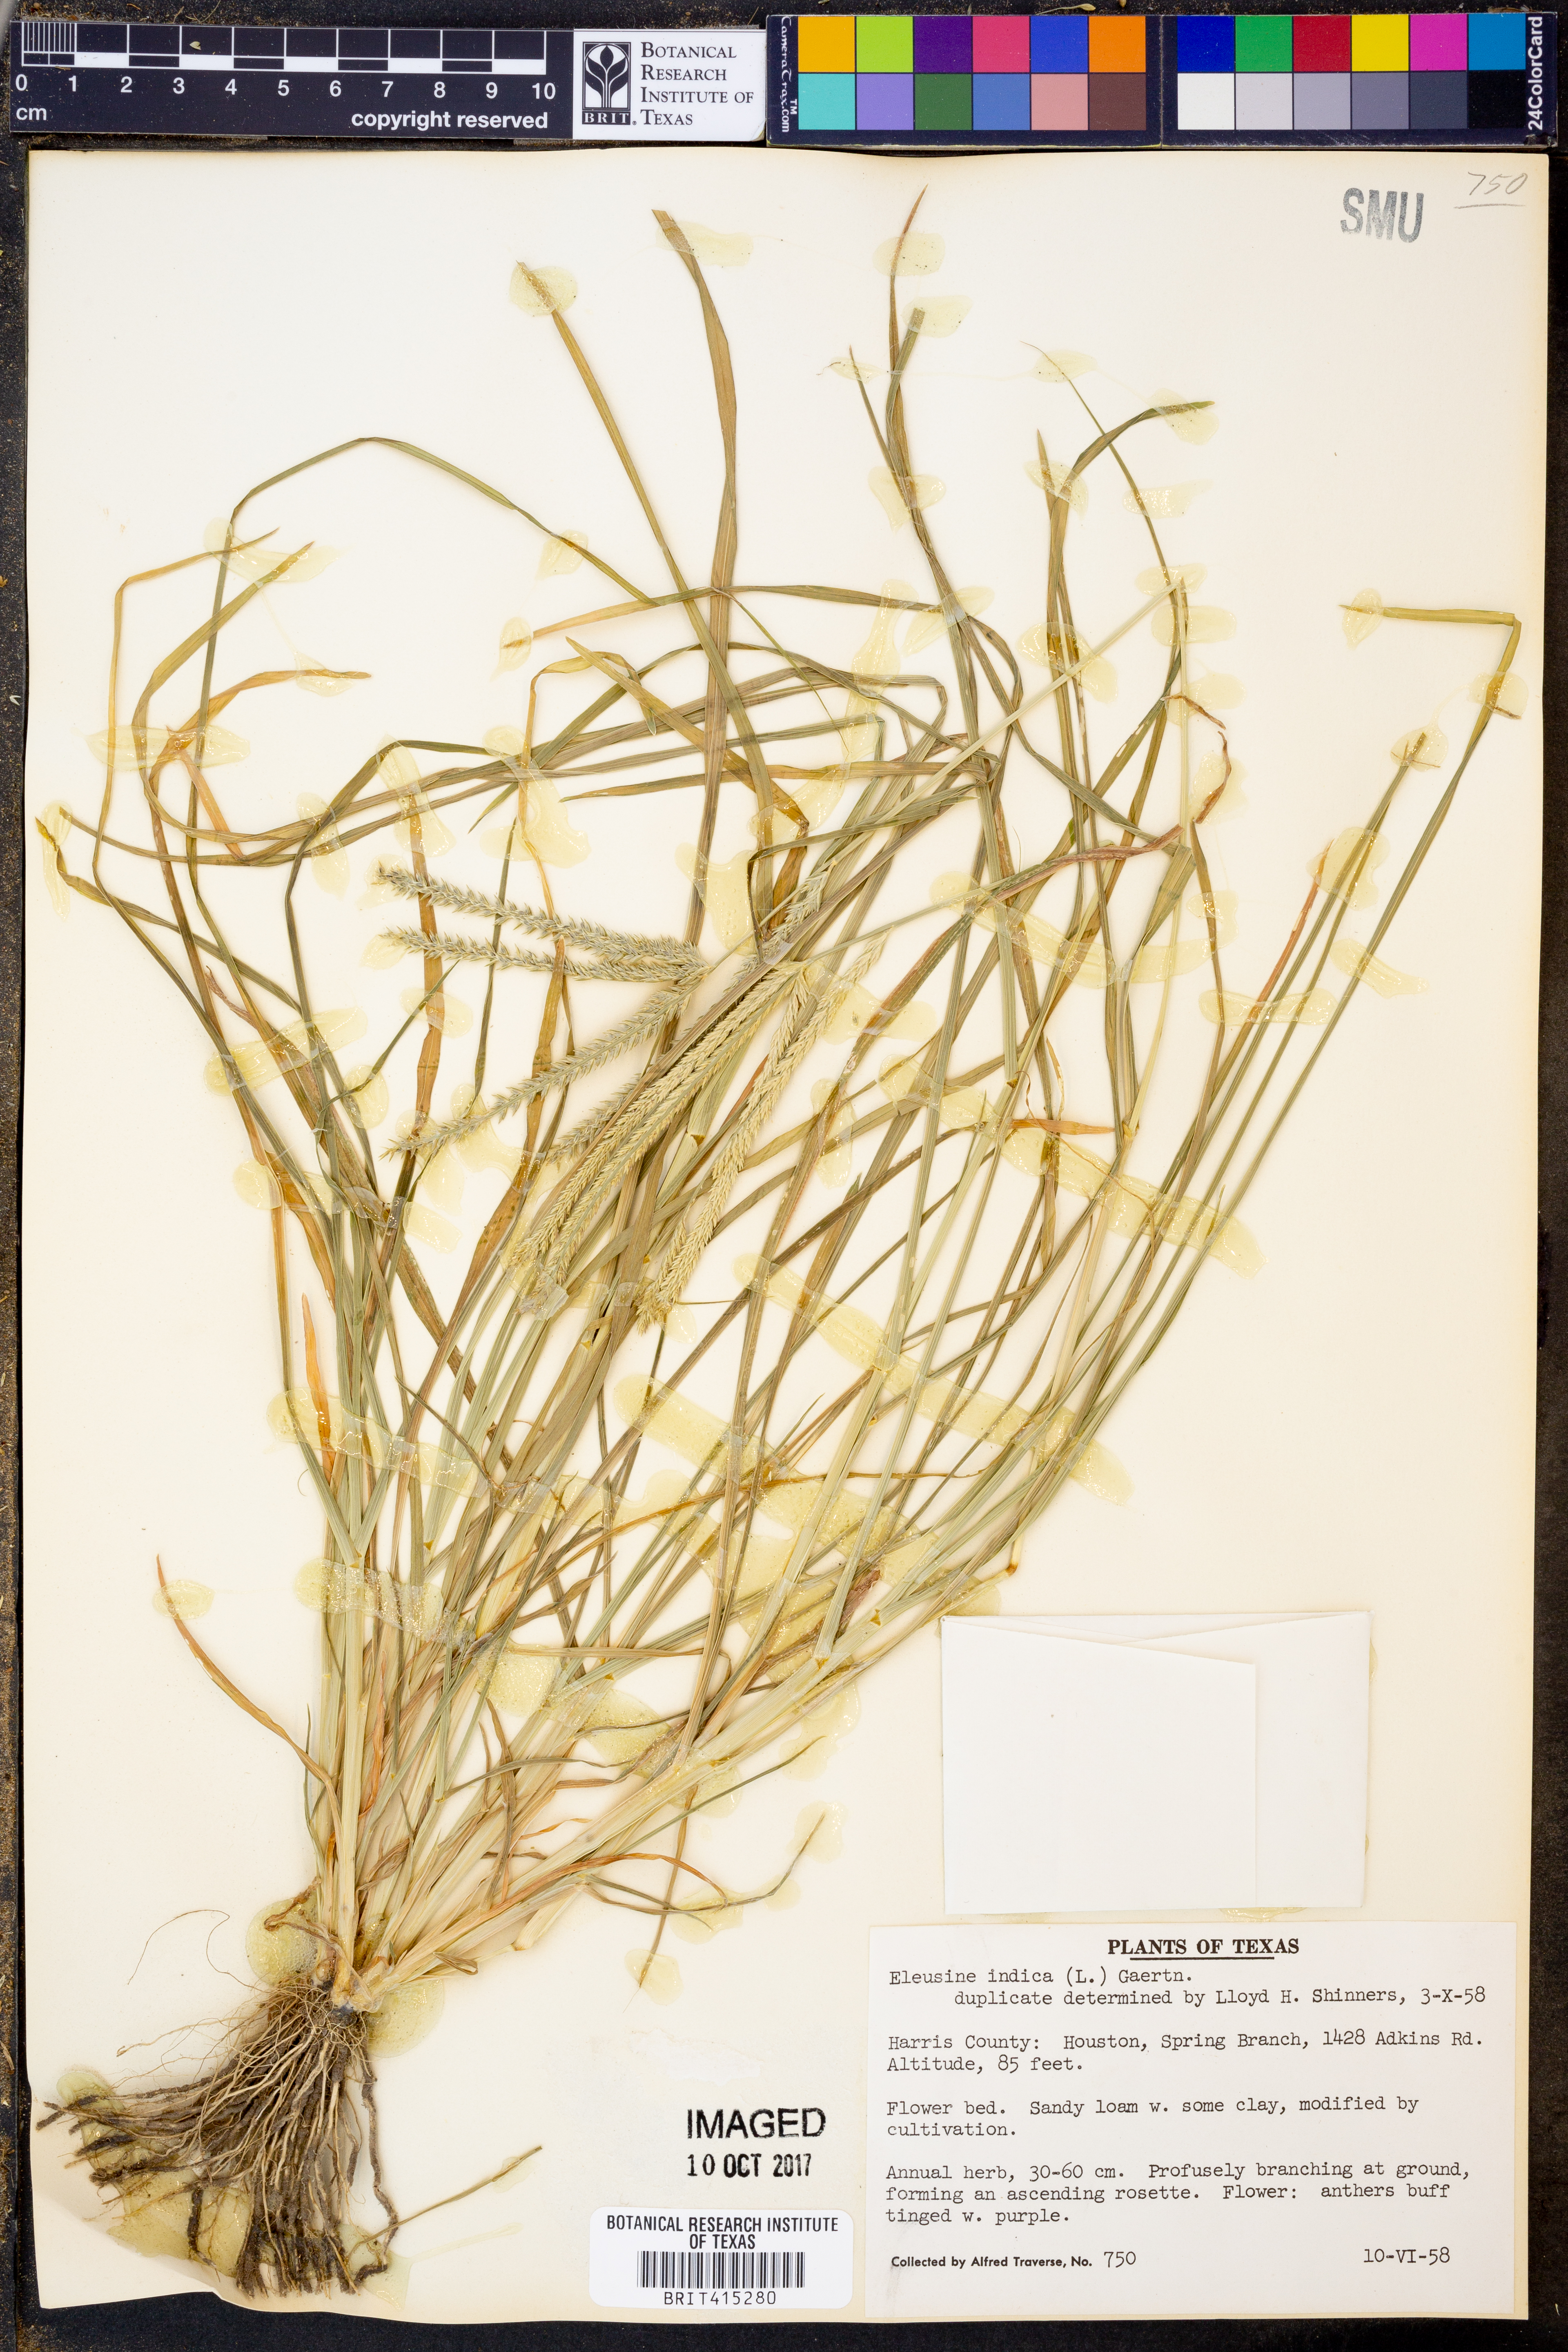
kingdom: Plantae
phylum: Tracheophyta
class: Liliopsida
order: Poales
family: Poaceae
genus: Eleusine
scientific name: Eleusine indica
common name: Yard-grass
